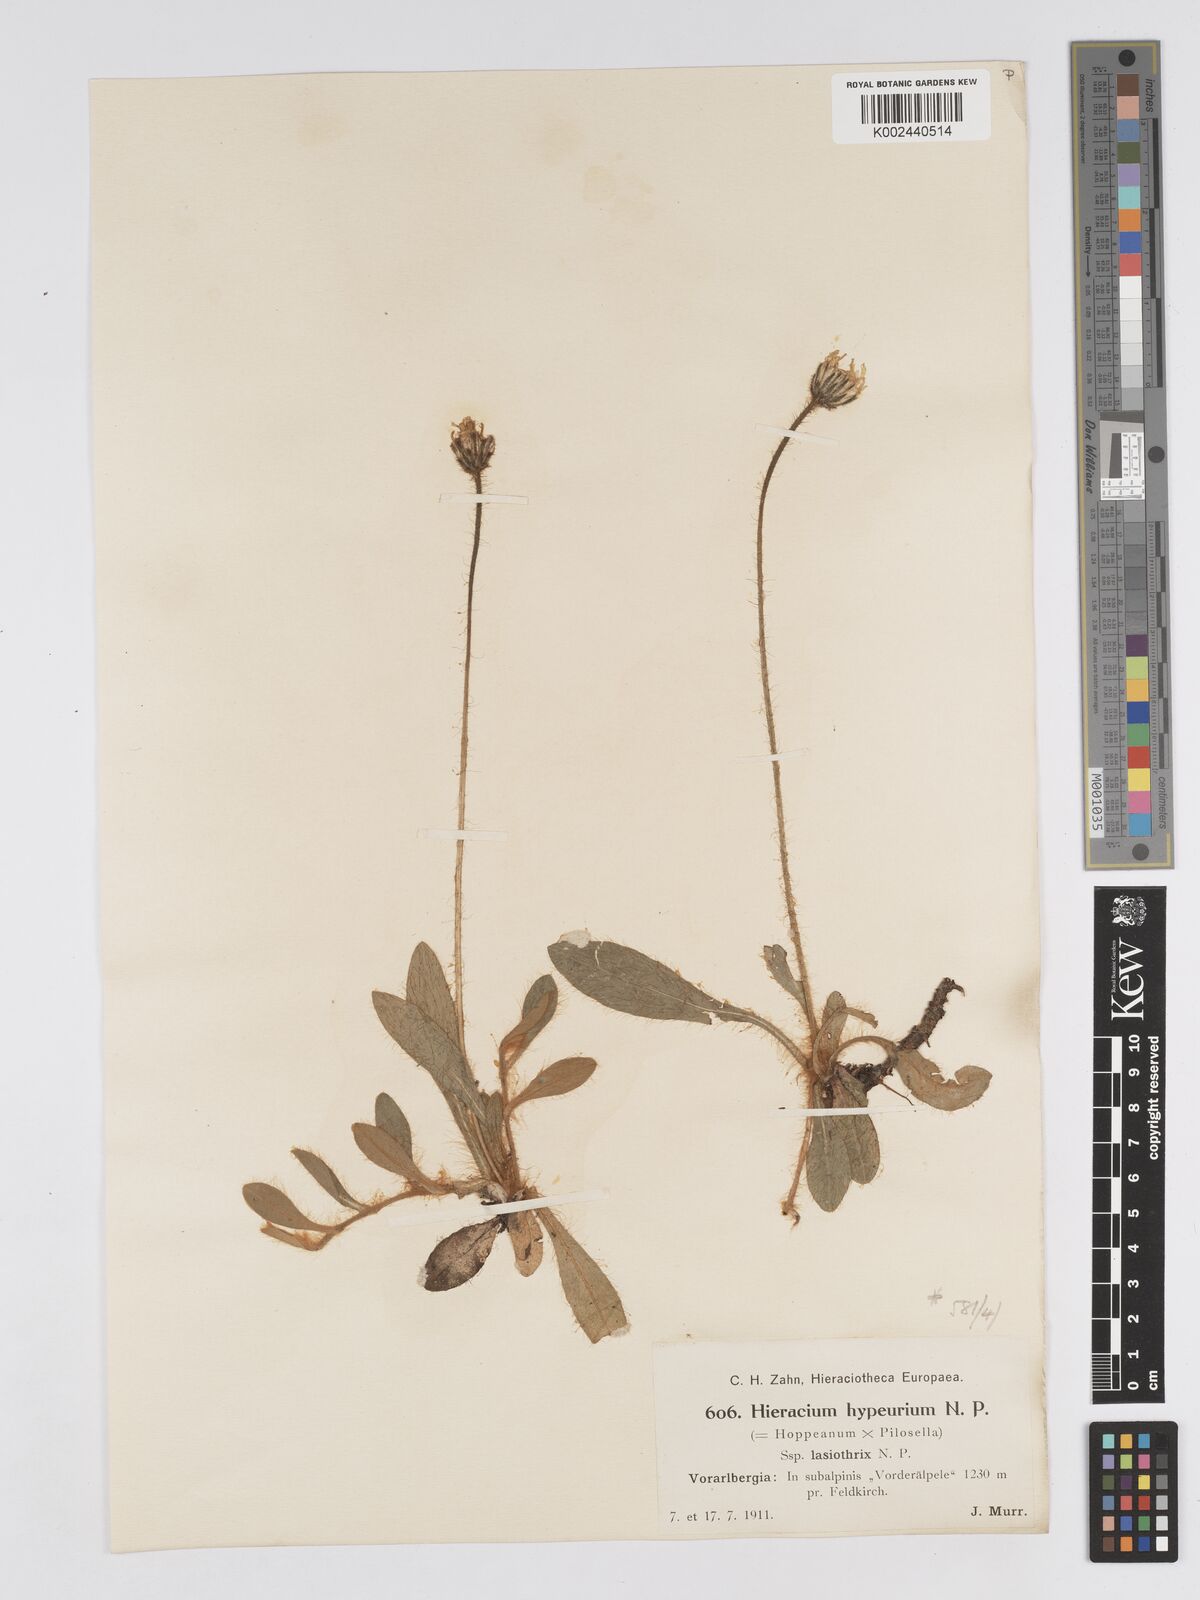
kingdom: Plantae
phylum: Tracheophyta
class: Magnoliopsida
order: Asterales
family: Asteraceae
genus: Pilosella
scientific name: Pilosella hypeurya
